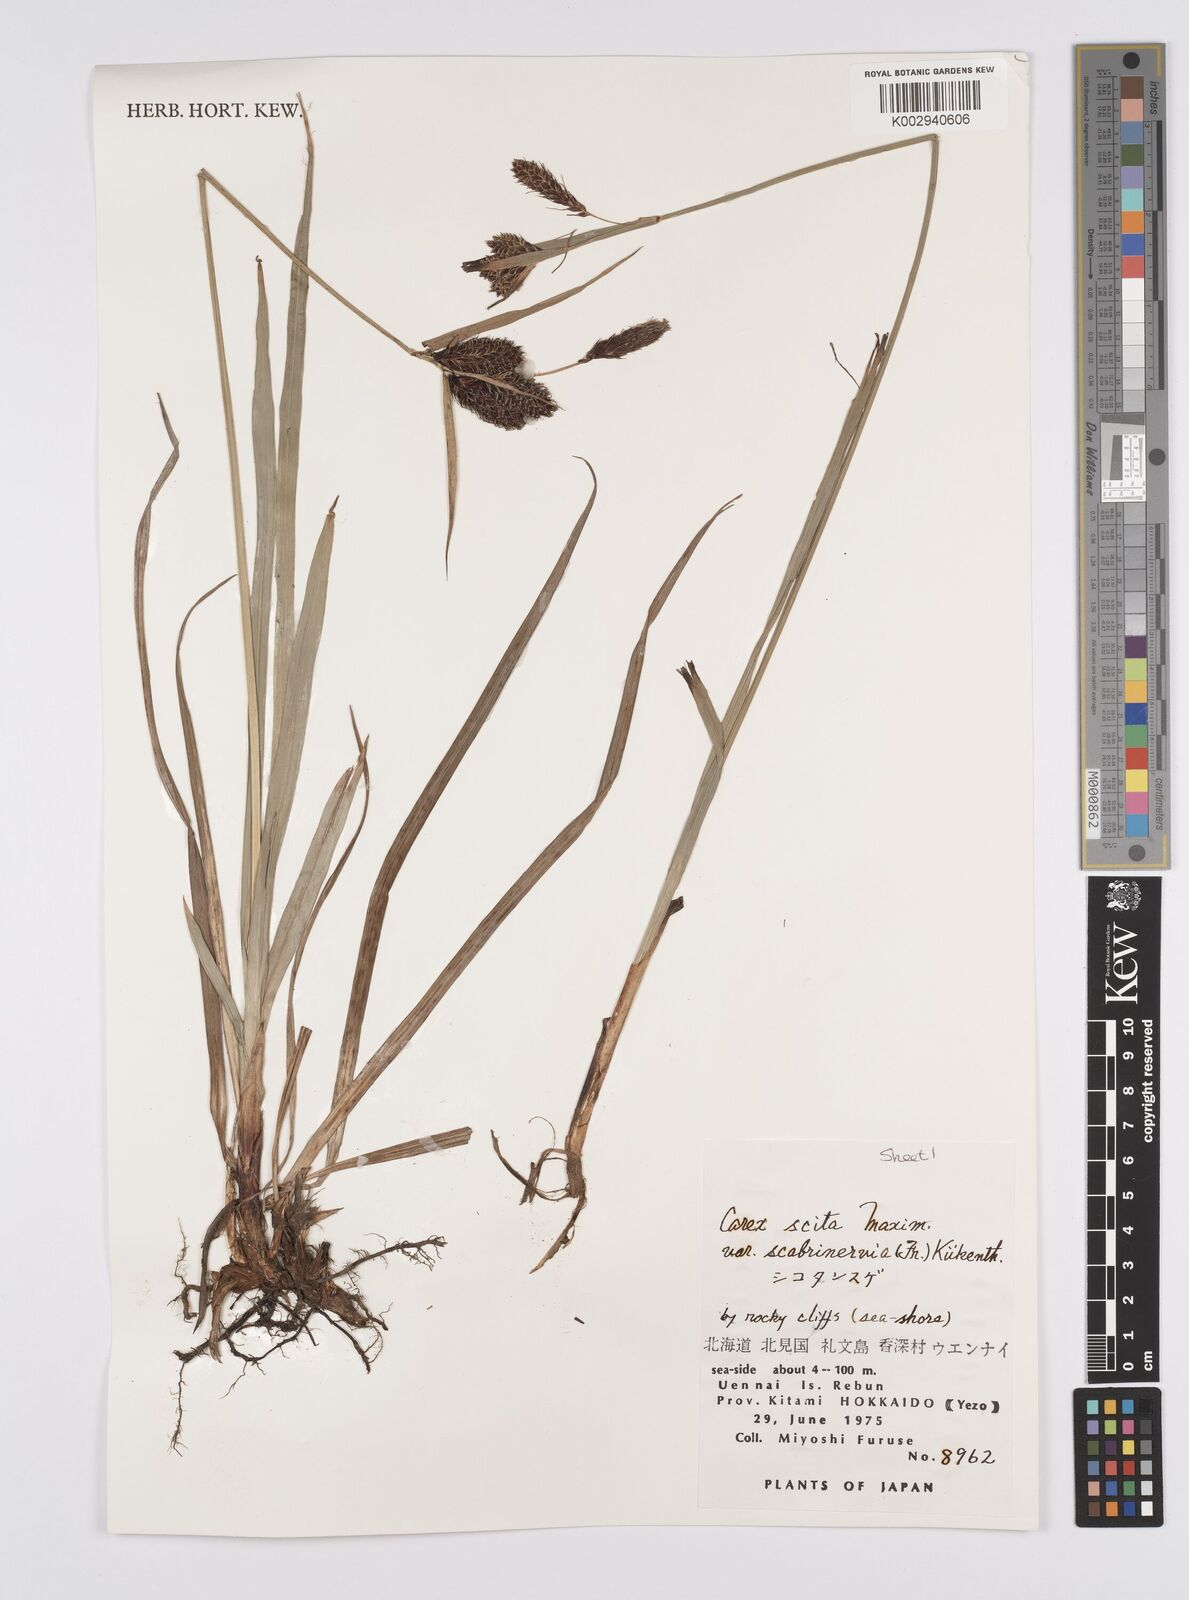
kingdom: Plantae
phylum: Tracheophyta
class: Liliopsida
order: Poales
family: Cyperaceae
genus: Carex
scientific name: Carex scita
